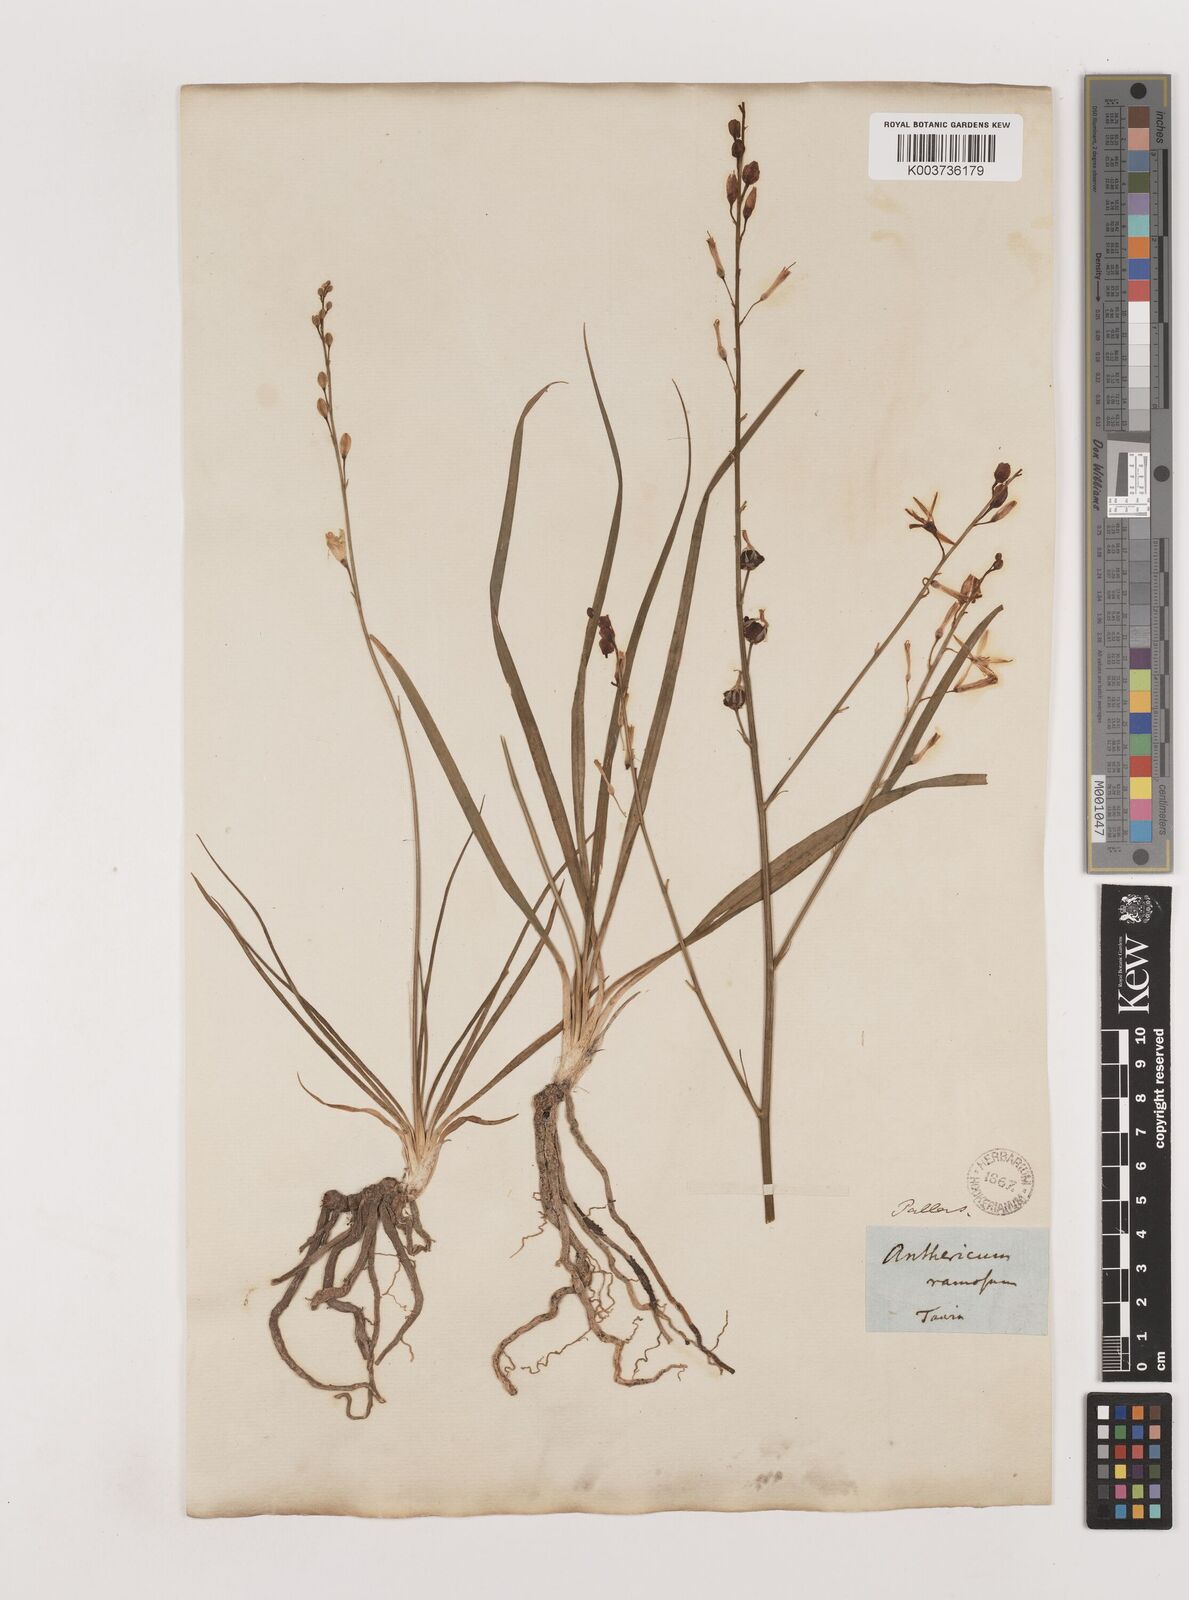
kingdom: Plantae
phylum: Tracheophyta
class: Liliopsida
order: Asparagales
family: Asparagaceae
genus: Anthericum
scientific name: Anthericum ramosum
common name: Branched st. bernard's-lily
